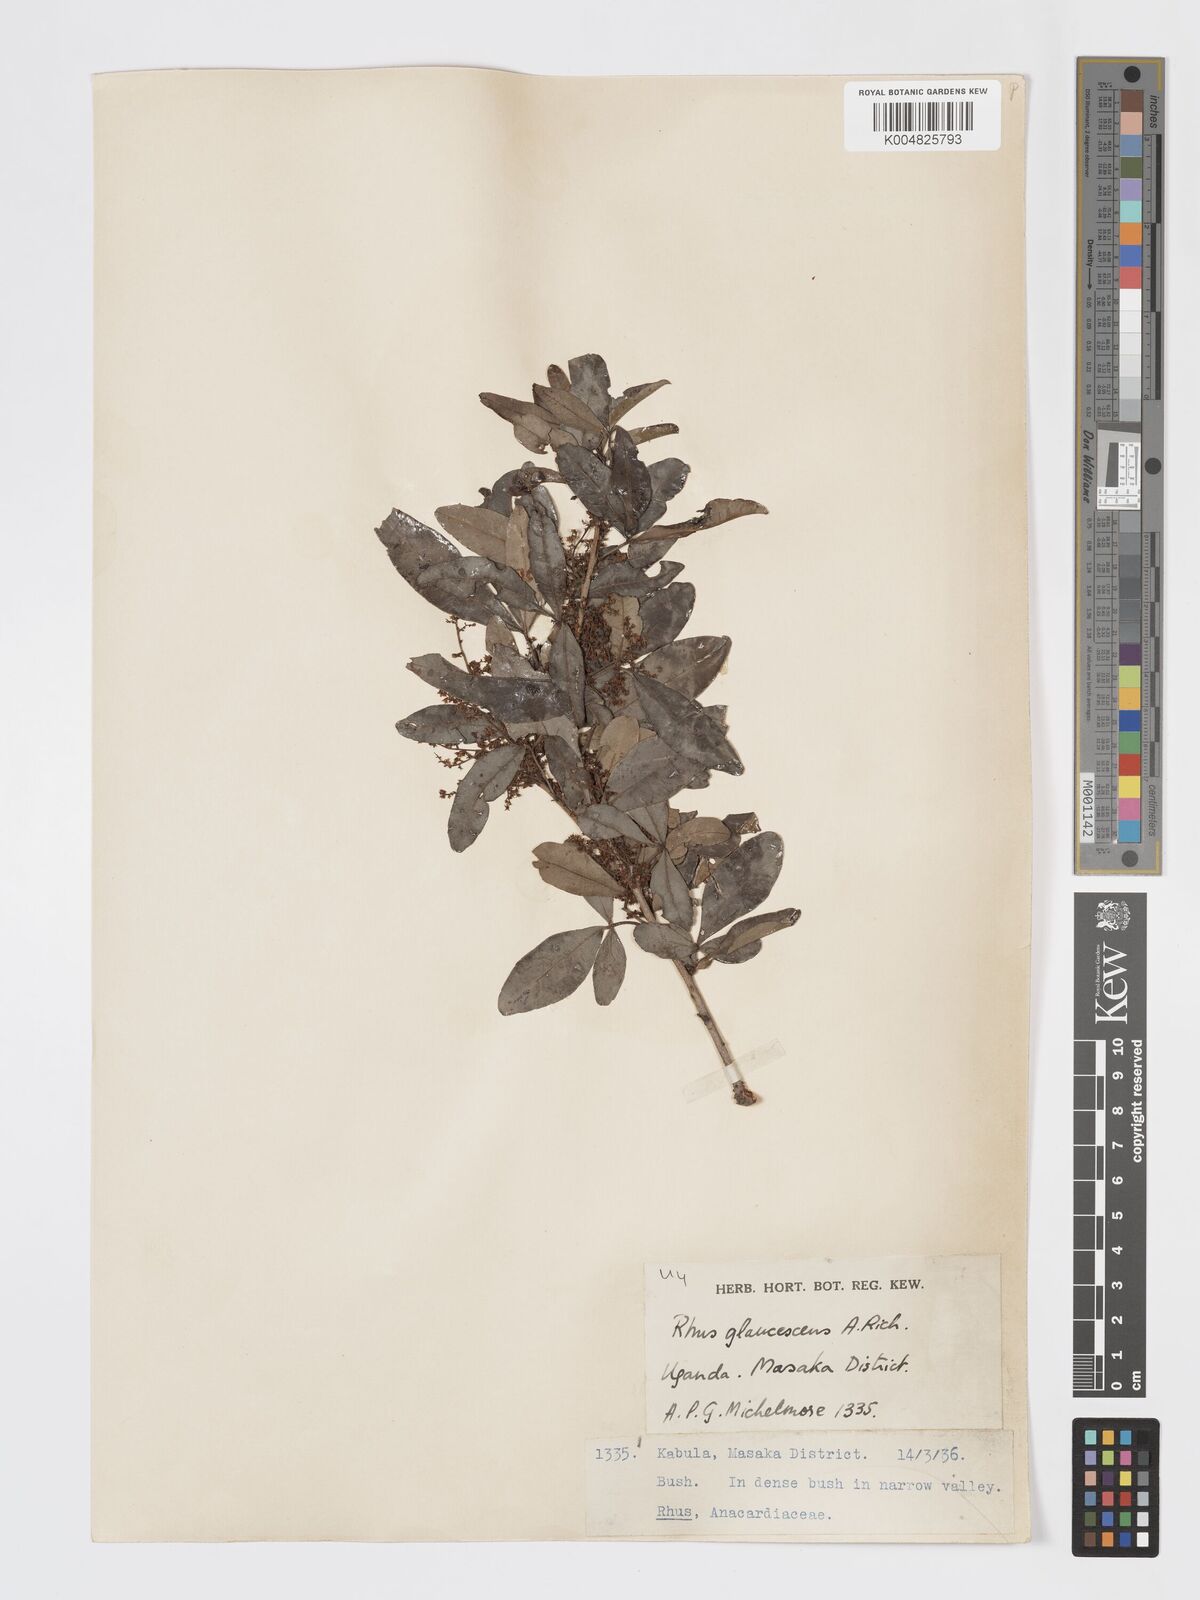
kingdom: Plantae
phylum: Tracheophyta
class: Magnoliopsida
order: Sapindales
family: Anacardiaceae
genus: Searsia
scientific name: Searsia natalensis
